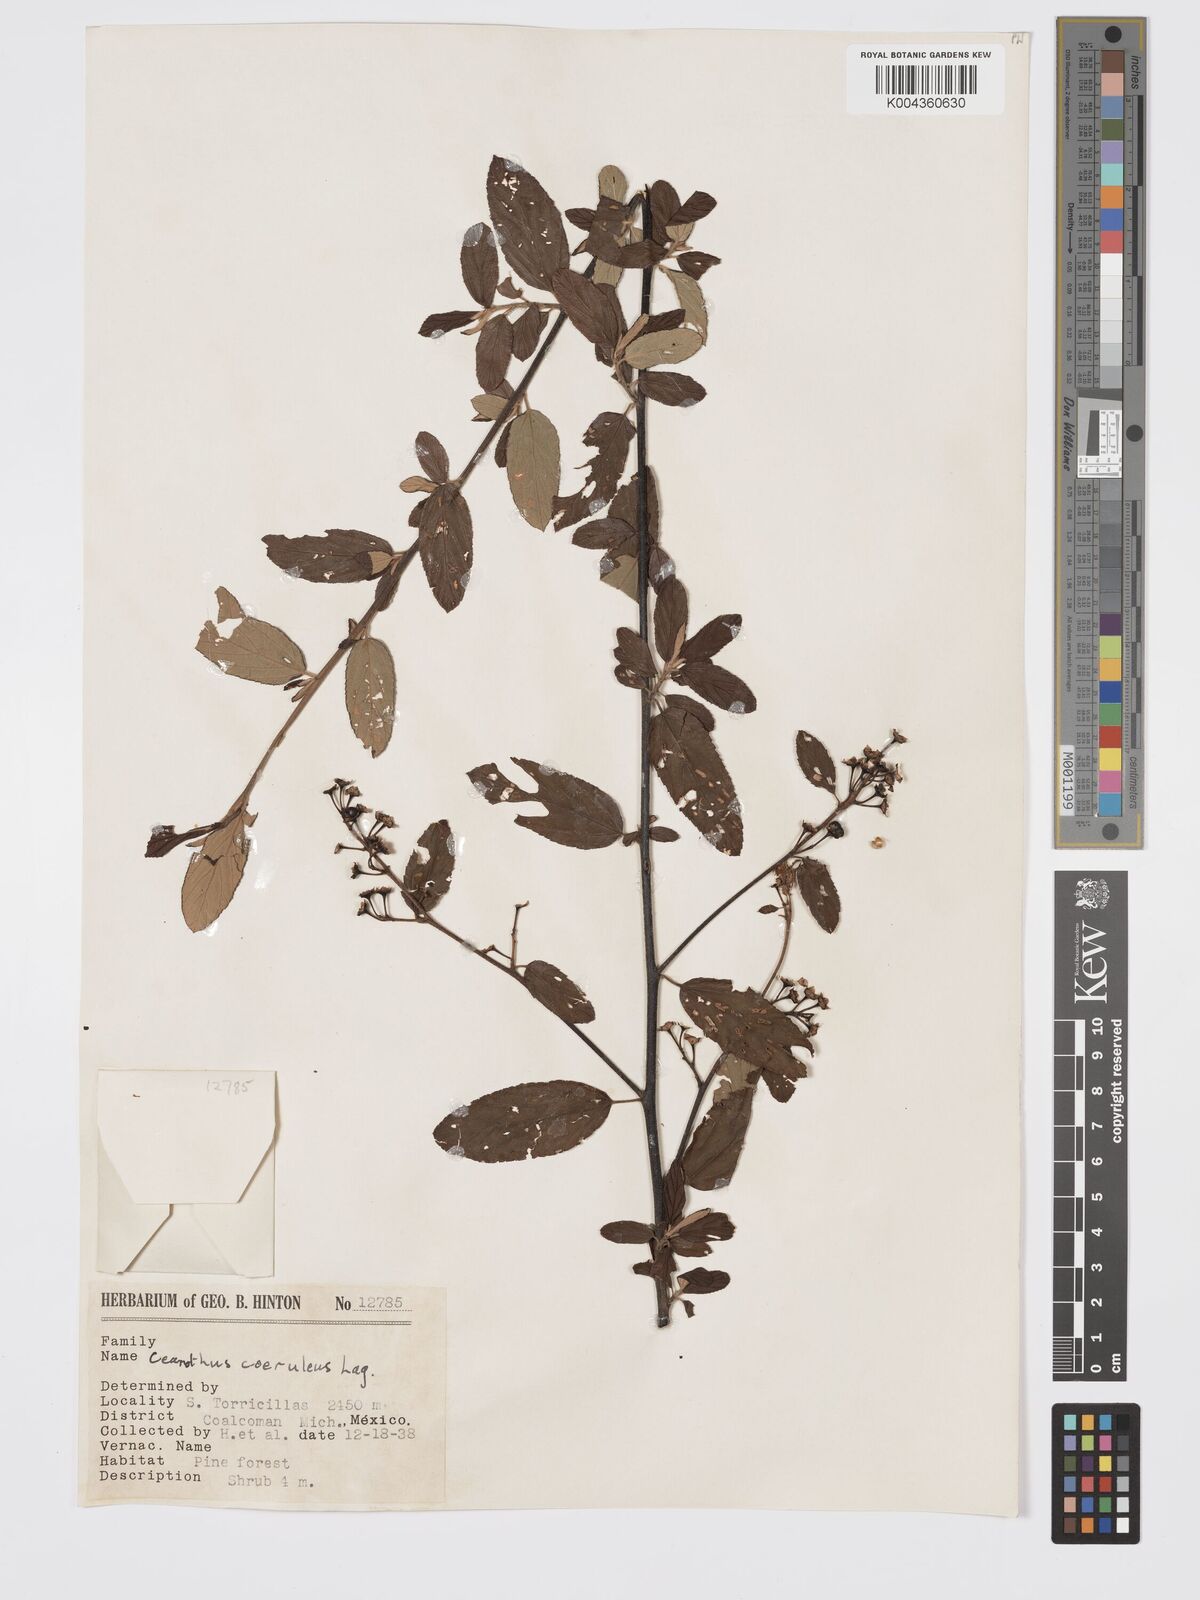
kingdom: Plantae
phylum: Tracheophyta
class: Magnoliopsida
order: Rosales
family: Rhamnaceae
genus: Ceanothus
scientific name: Ceanothus caeruleus
